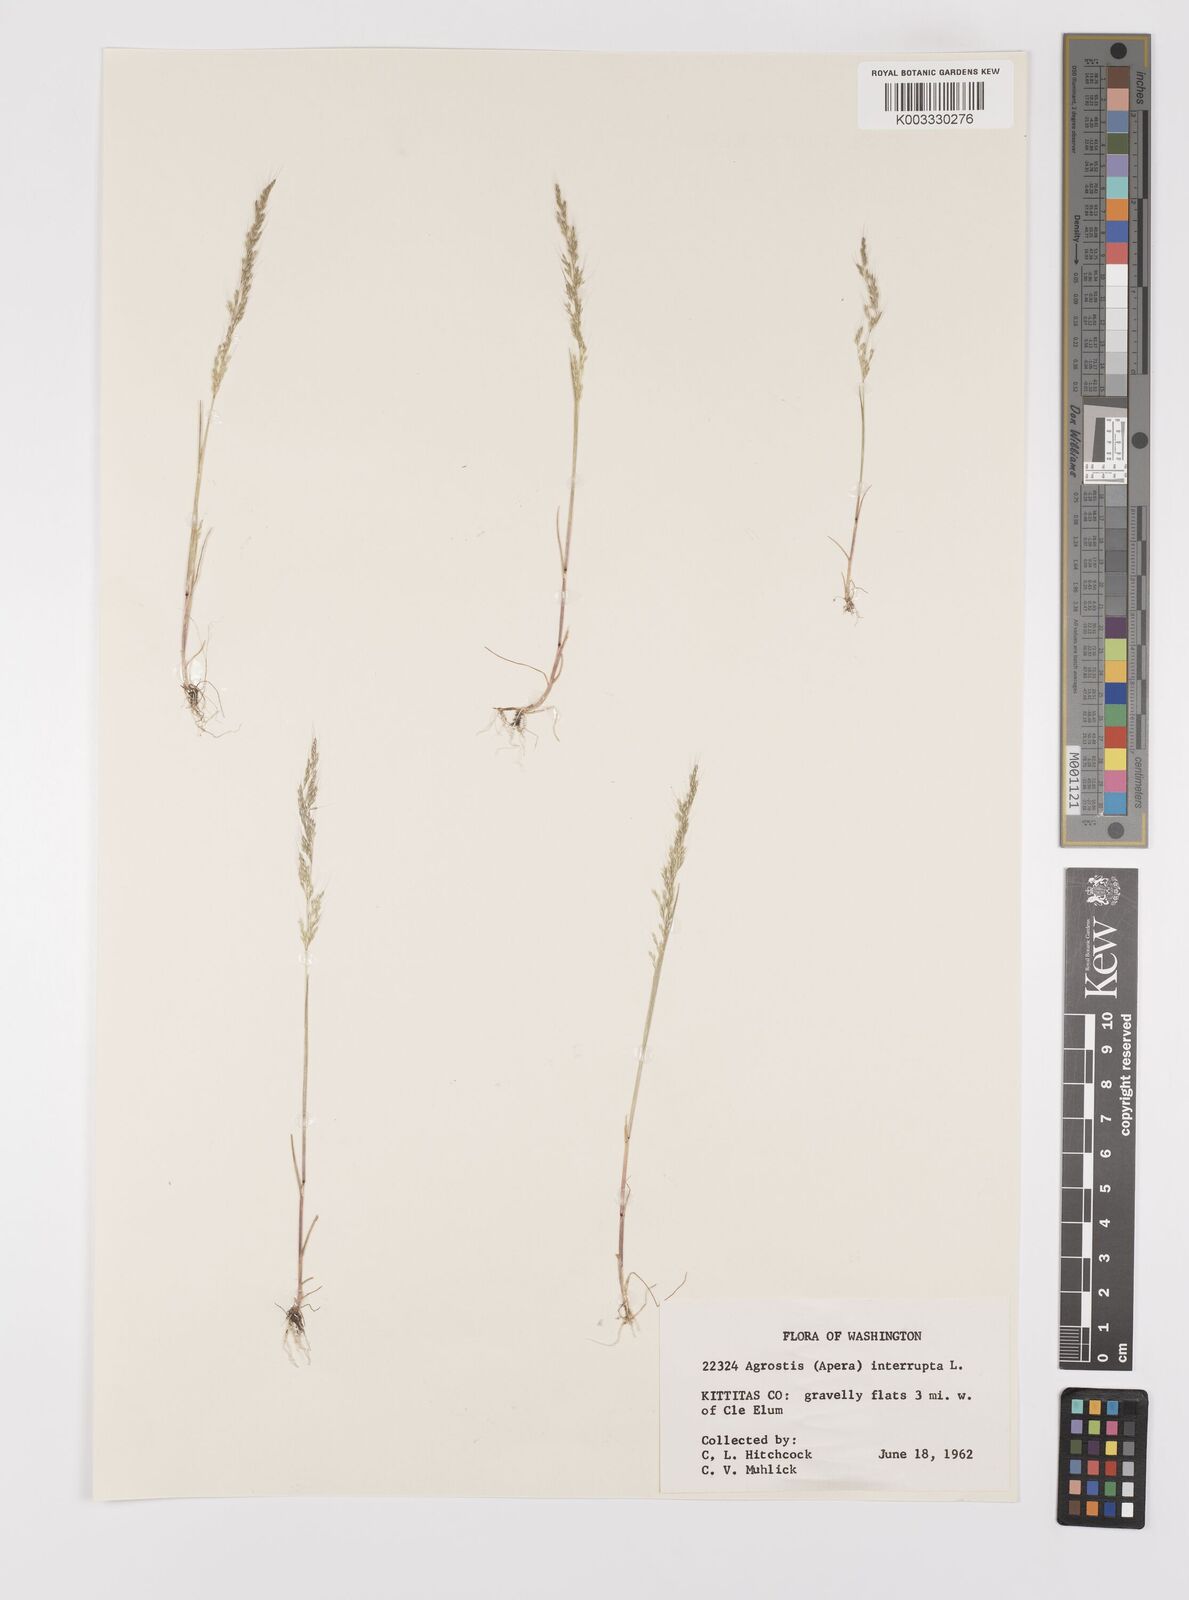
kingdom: Plantae
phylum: Tracheophyta
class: Liliopsida
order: Poales
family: Poaceae
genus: Apera
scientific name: Apera interrupta
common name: Dense silky-bent
